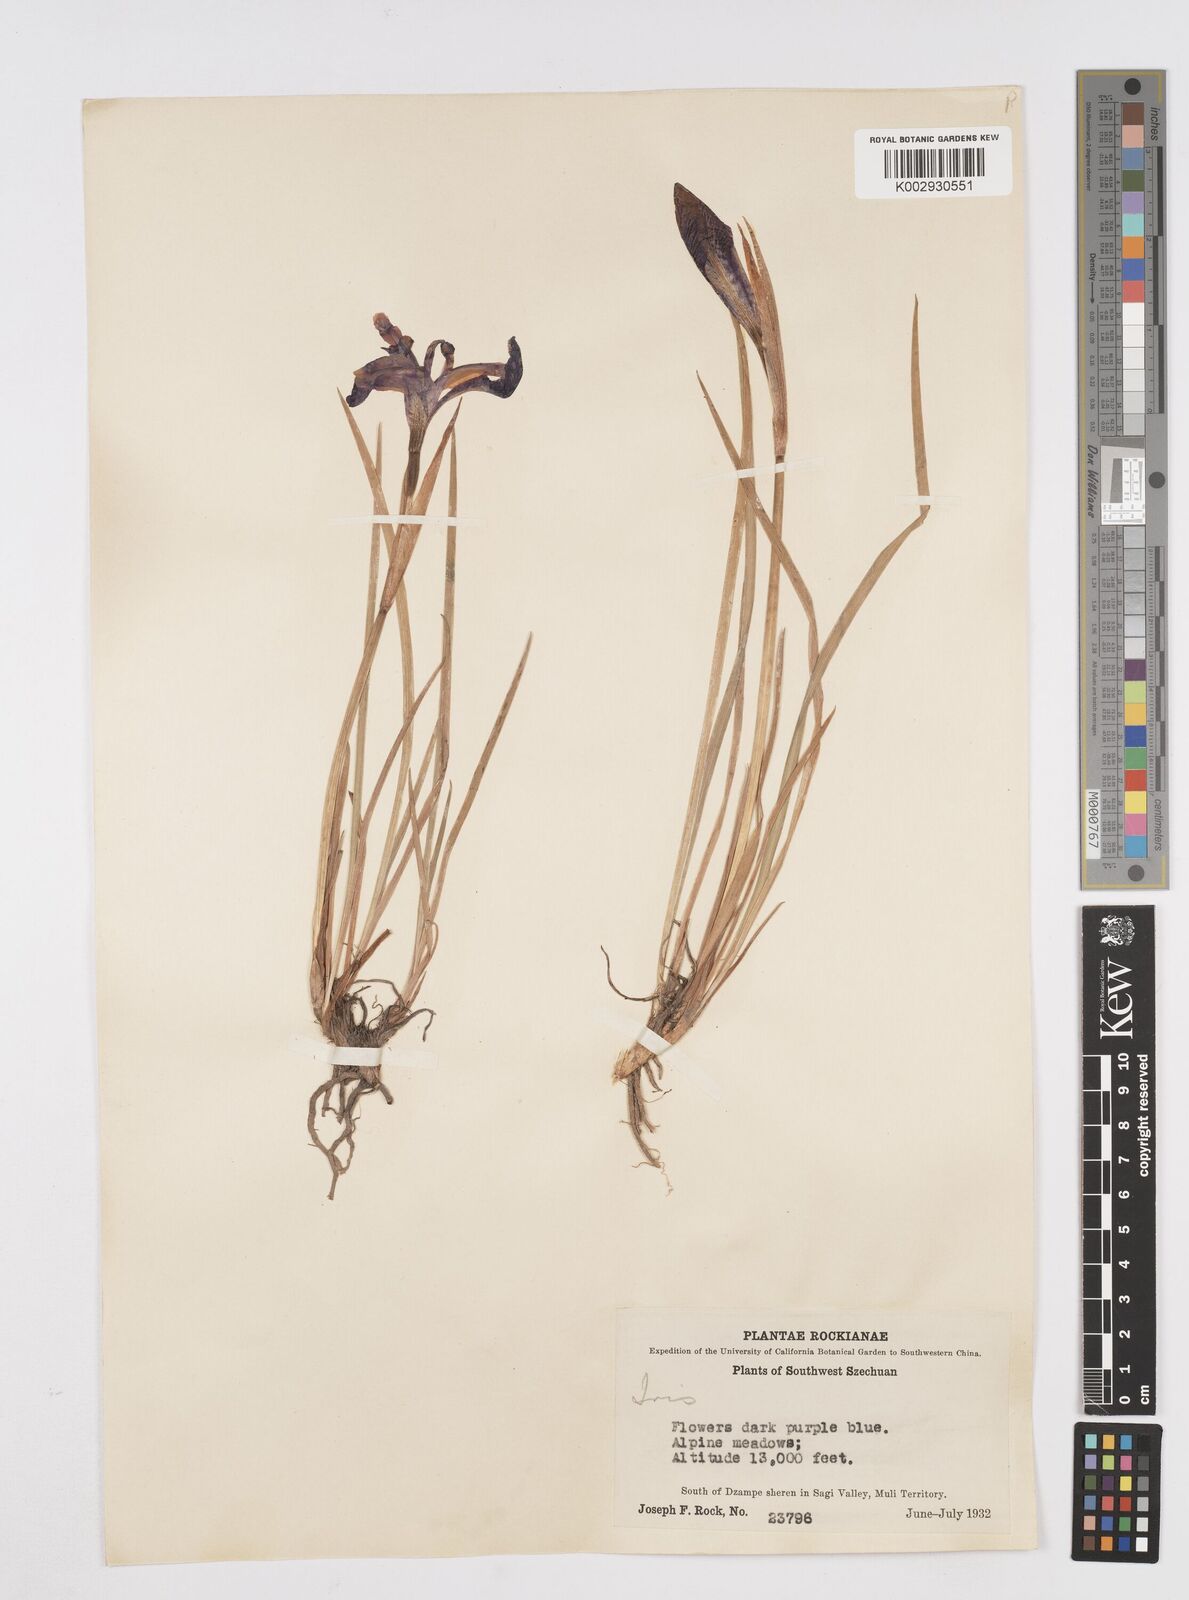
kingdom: Plantae
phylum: Tracheophyta
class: Liliopsida
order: Asparagales
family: Iridaceae
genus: Iris
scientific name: Iris bulleyana
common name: Southwest iris
